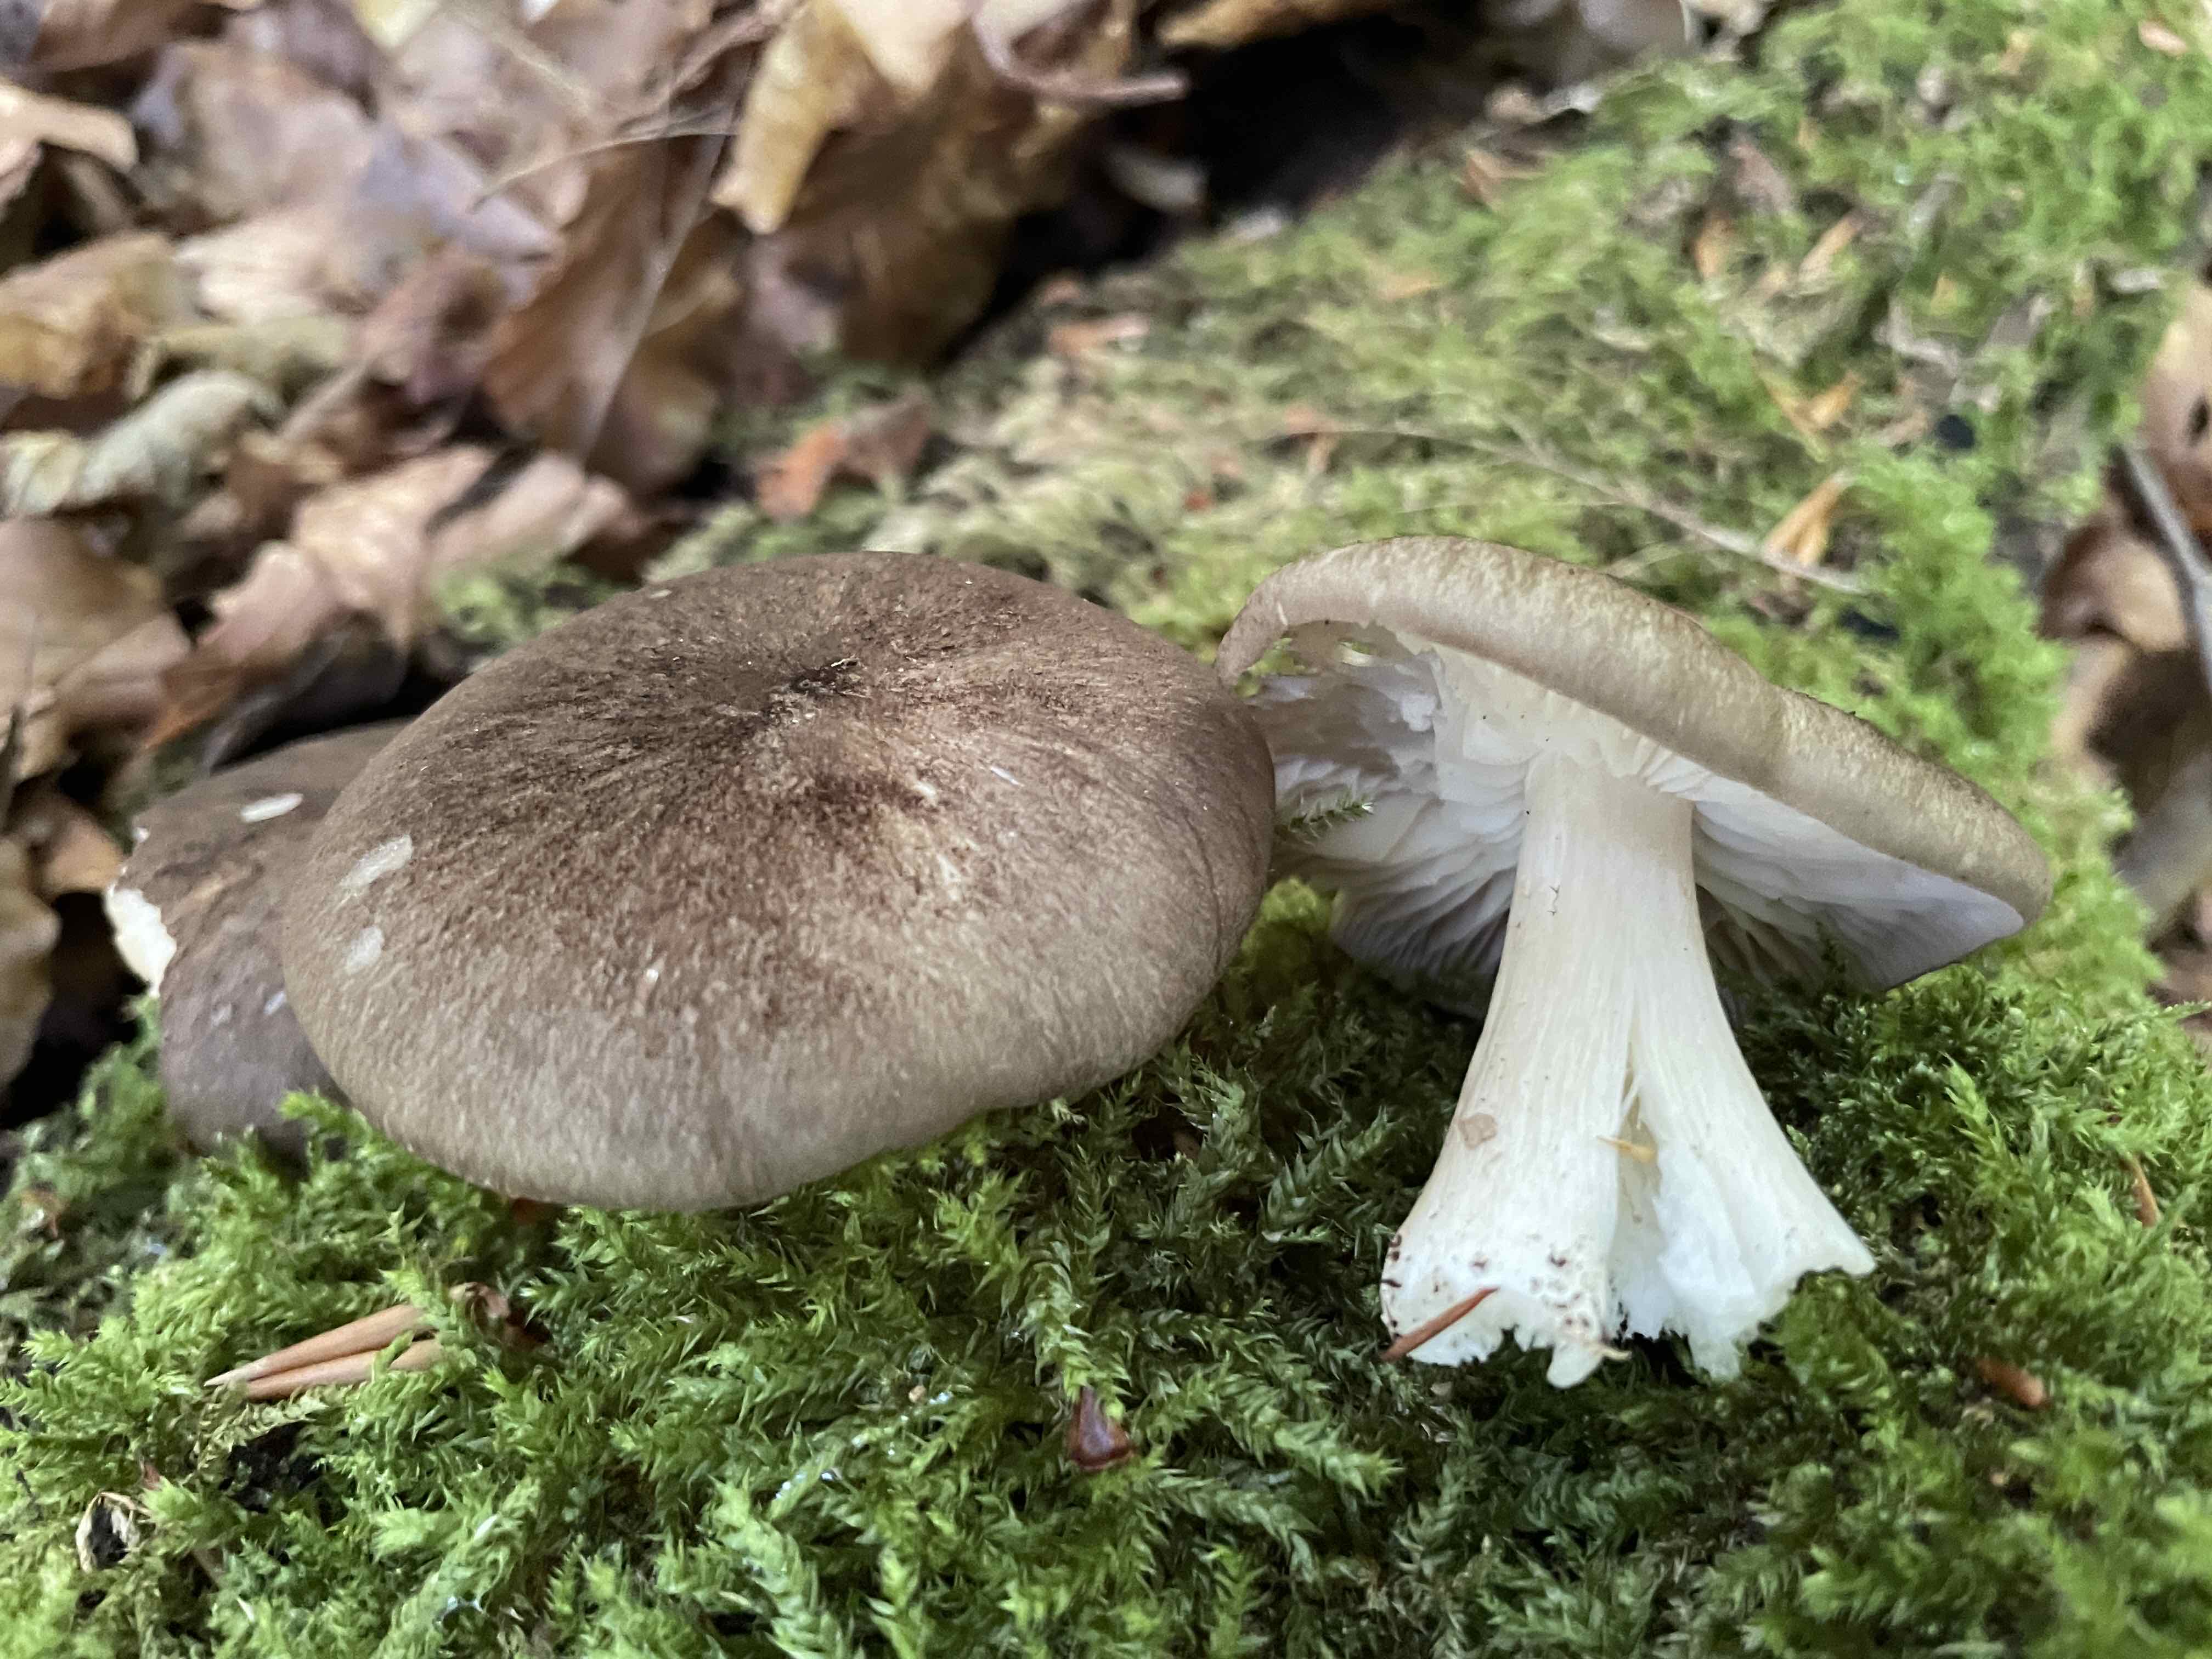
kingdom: Fungi
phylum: Basidiomycota
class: Agaricomycetes
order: Agaricales
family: Tricholomataceae
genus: Megacollybia
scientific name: Megacollybia platyphylla
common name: bredbladet væbnerhat
